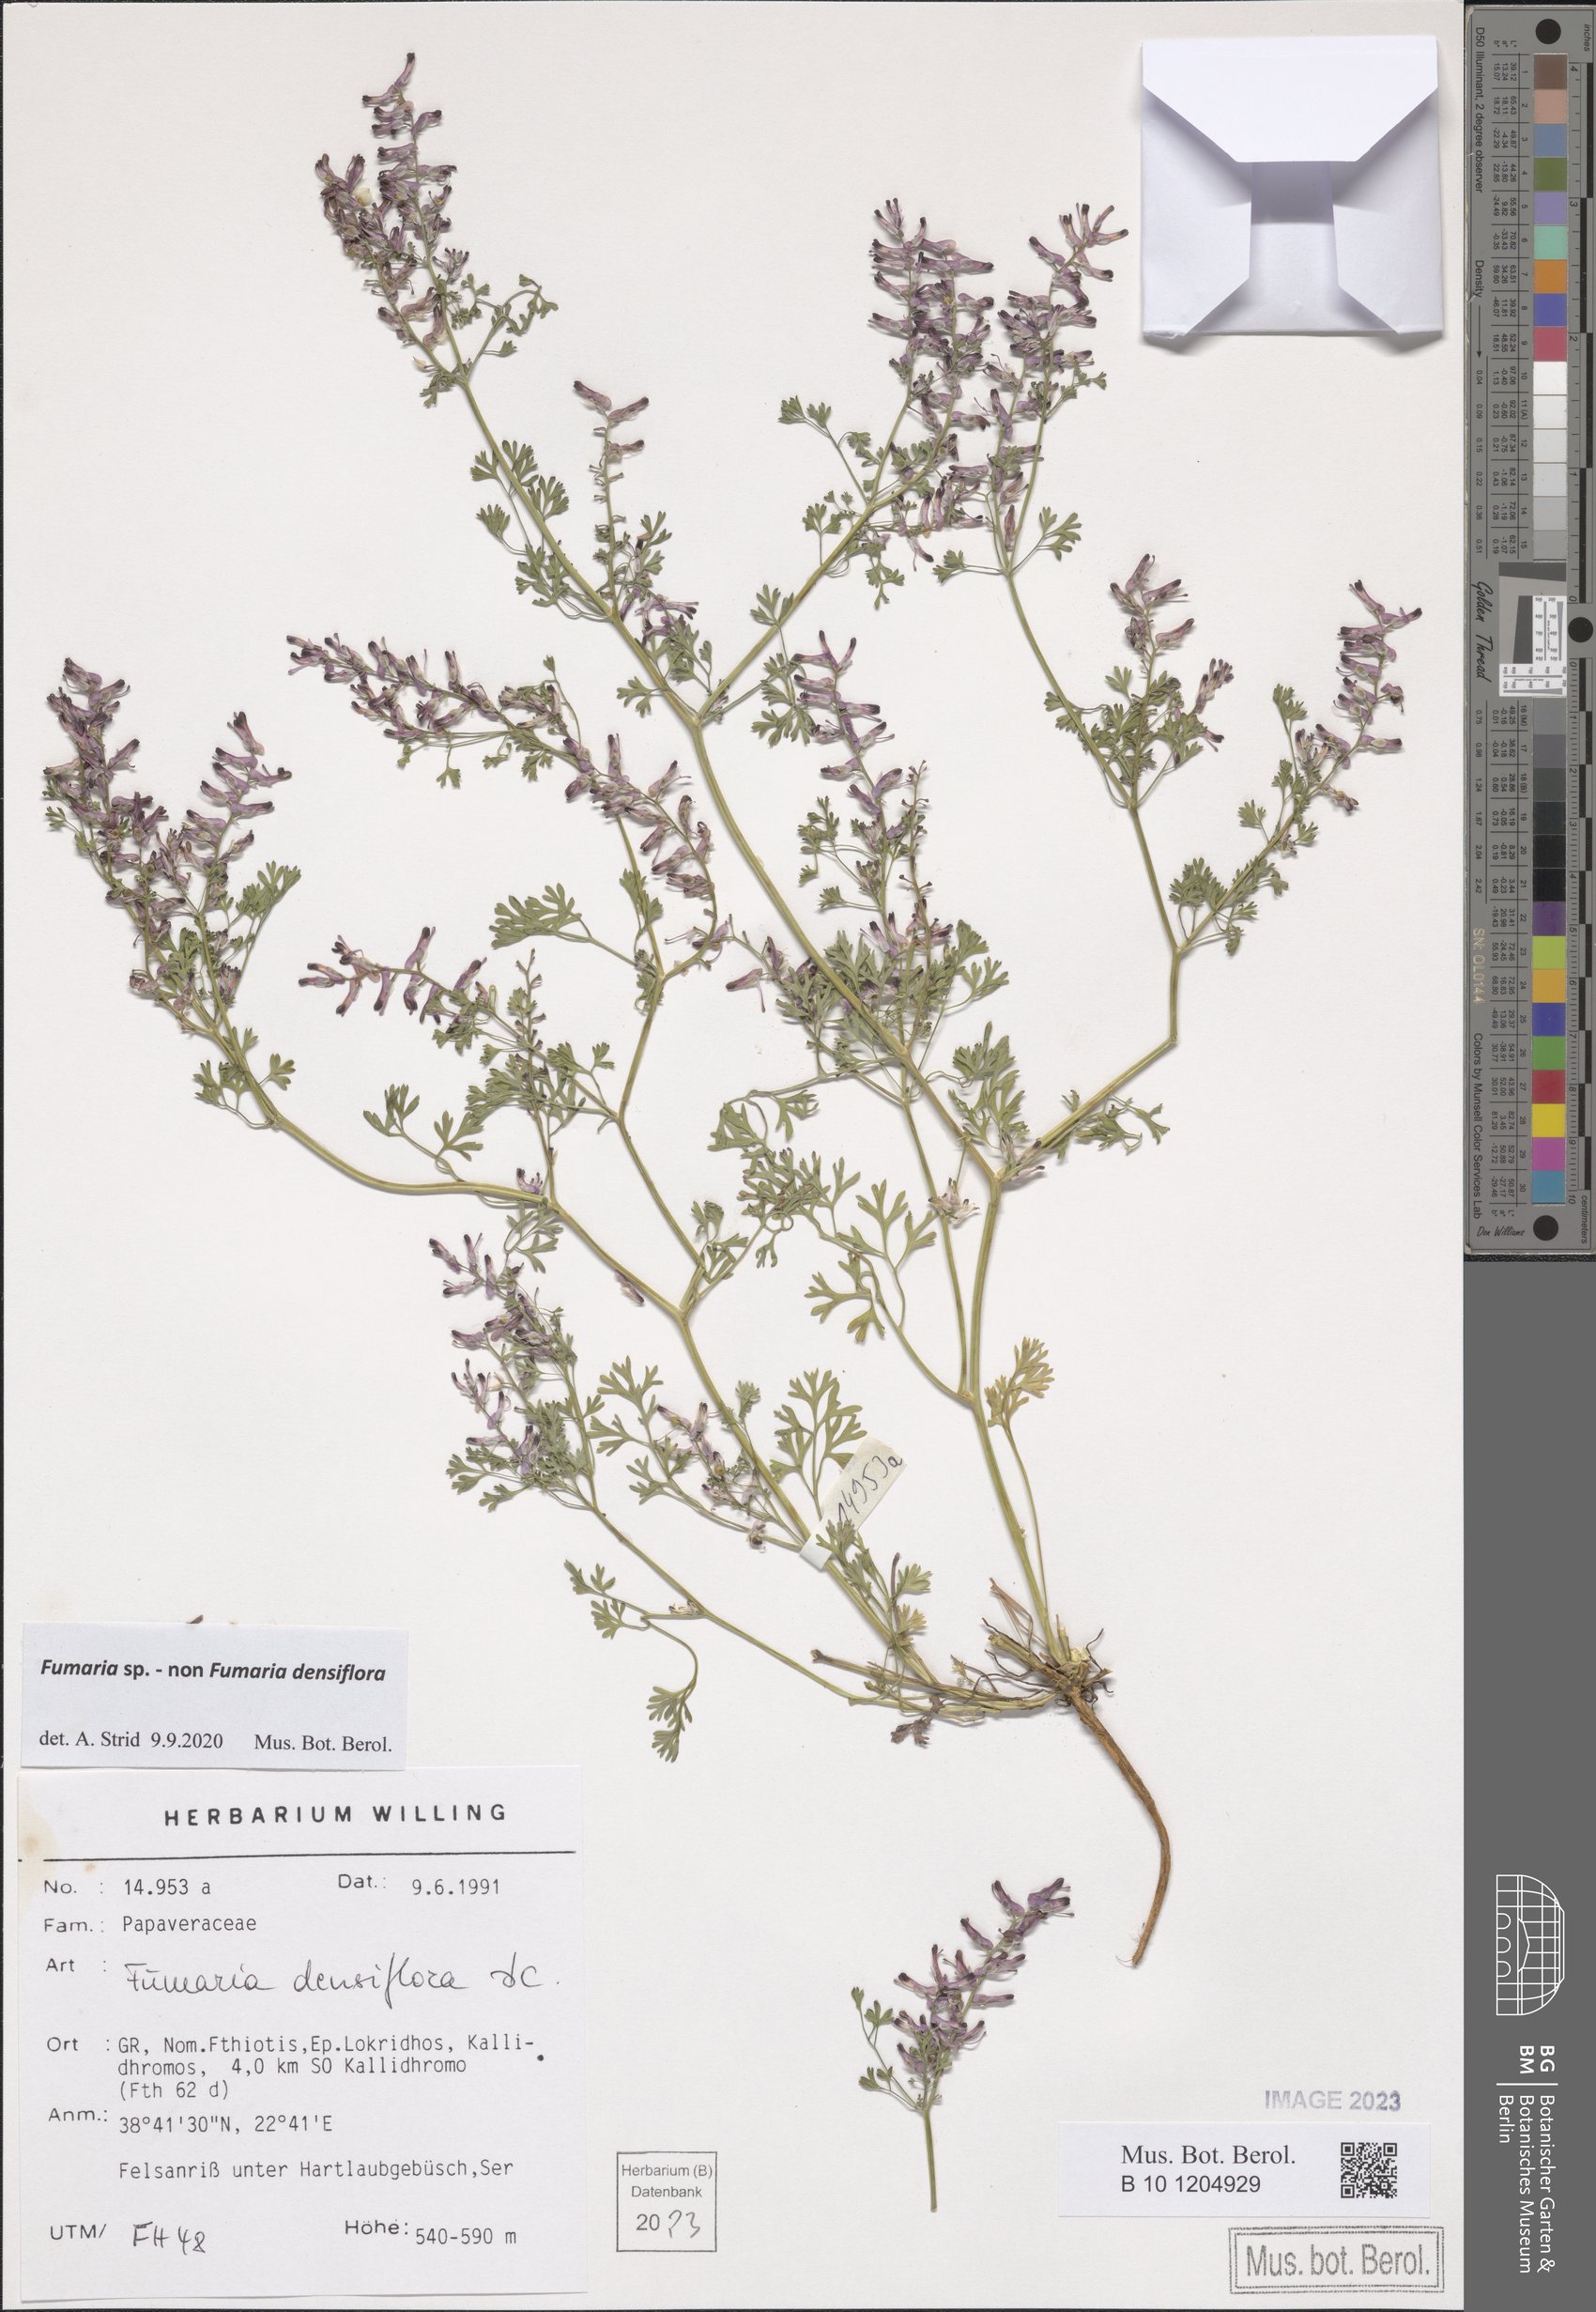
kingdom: Plantae
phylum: Tracheophyta
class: Magnoliopsida
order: Ranunculales
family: Papaveraceae
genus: Fumaria
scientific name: Fumaria
